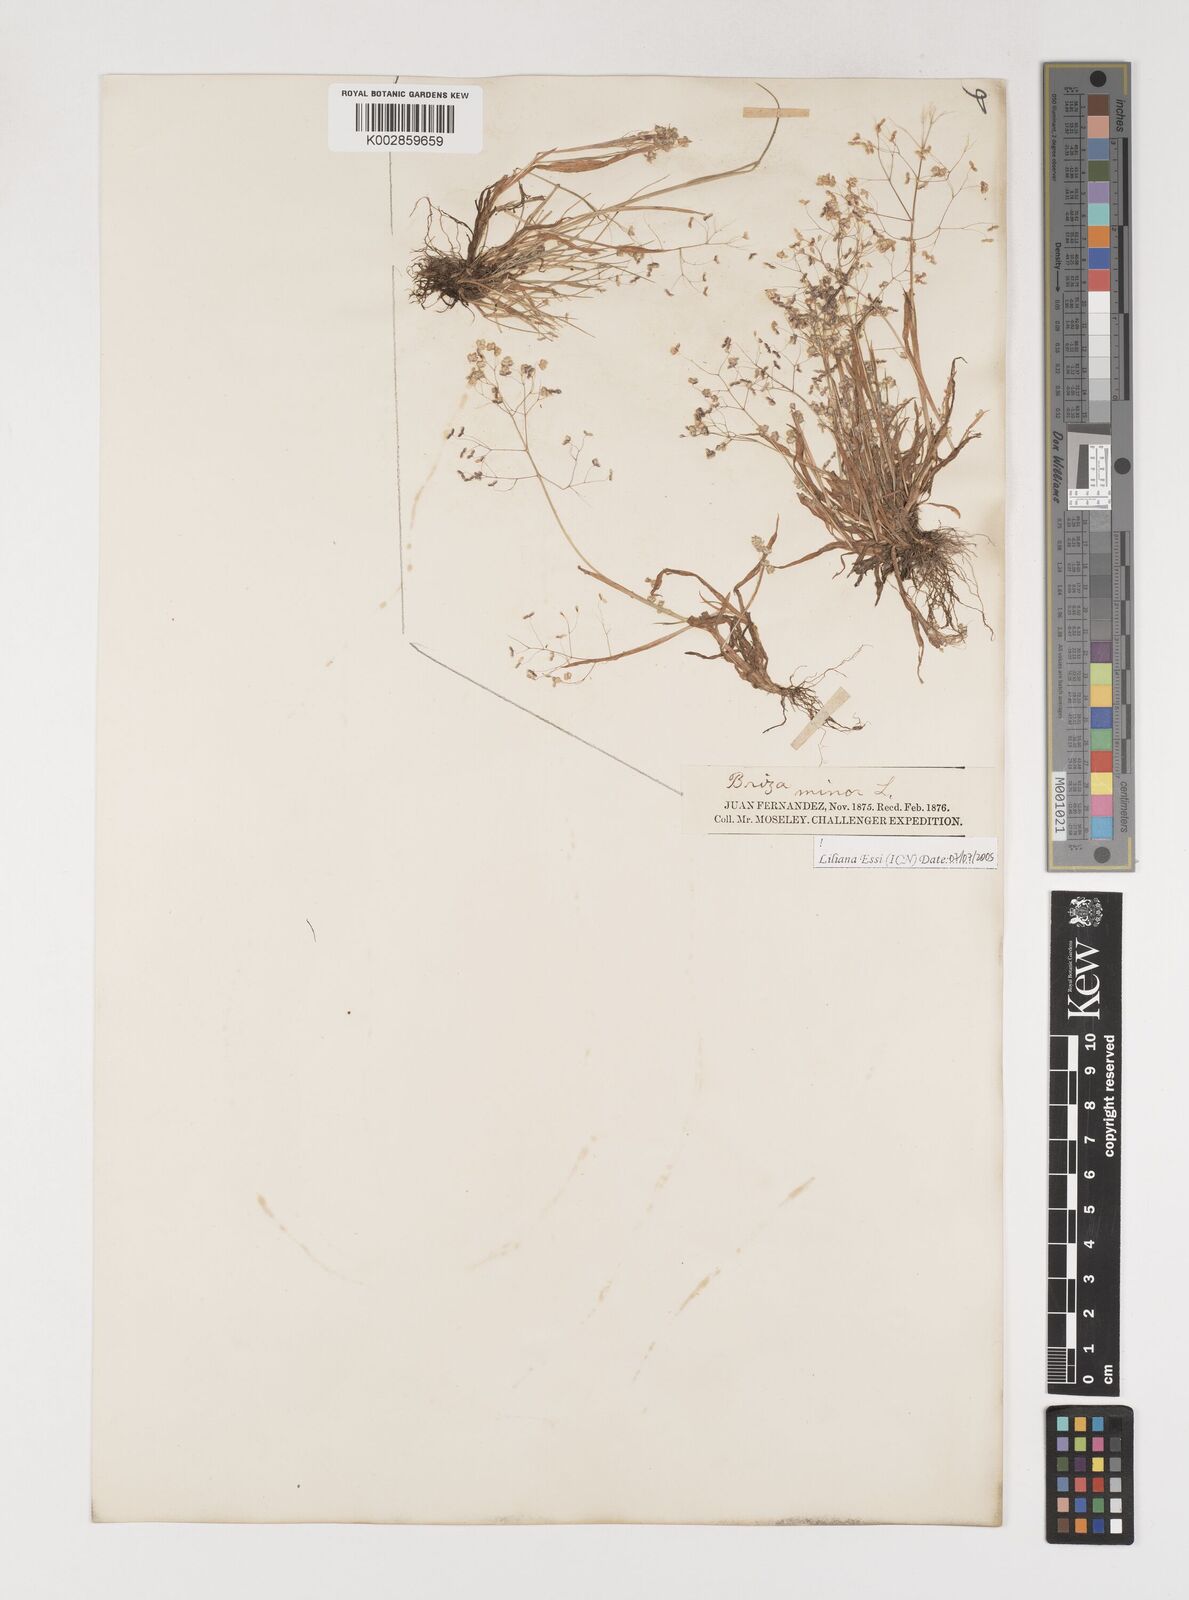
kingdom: Plantae
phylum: Tracheophyta
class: Liliopsida
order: Poales
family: Poaceae
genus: Briza
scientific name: Briza minor
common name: Lesser quaking-grass
